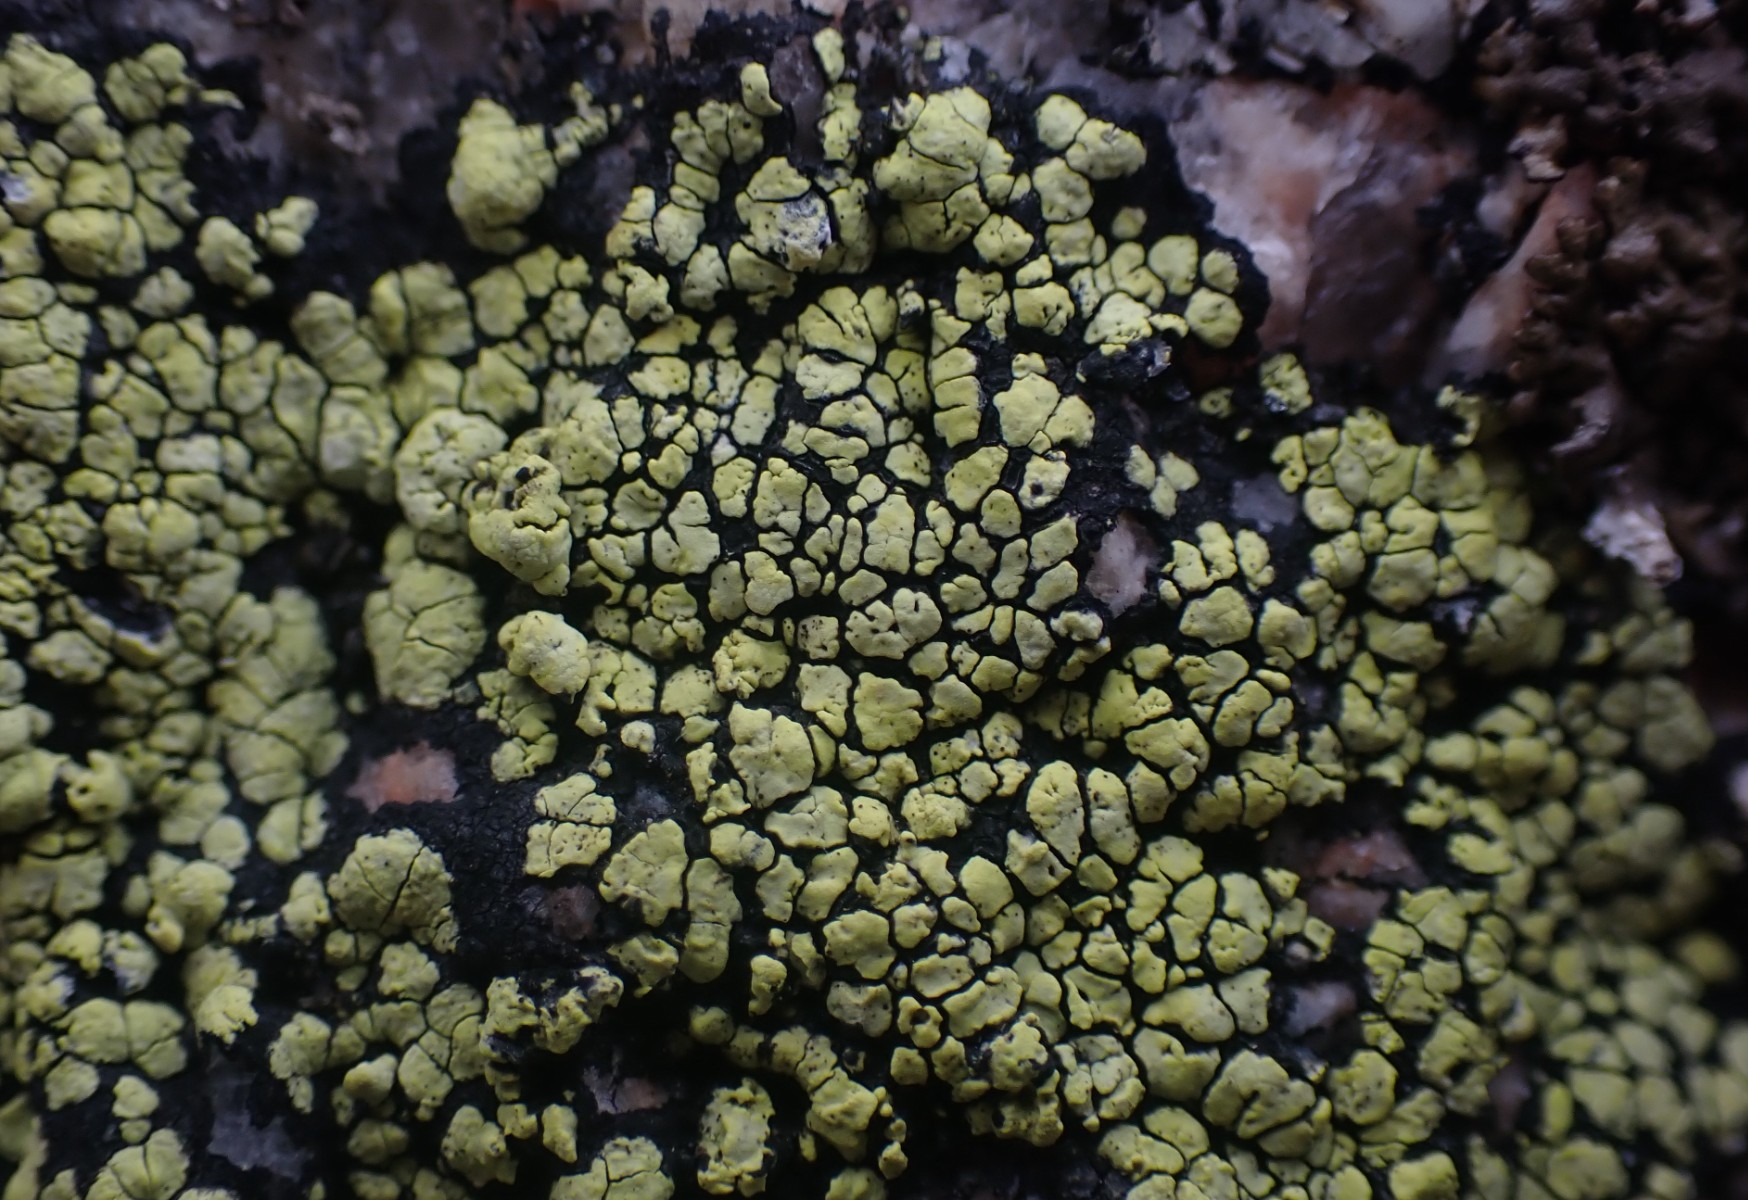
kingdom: Fungi
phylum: Ascomycota
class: Lecanoromycetes
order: Rhizocarpales
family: Rhizocarpaceae
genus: Rhizocarpon
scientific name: Rhizocarpon geographicum
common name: gulgrøn landkortlav
